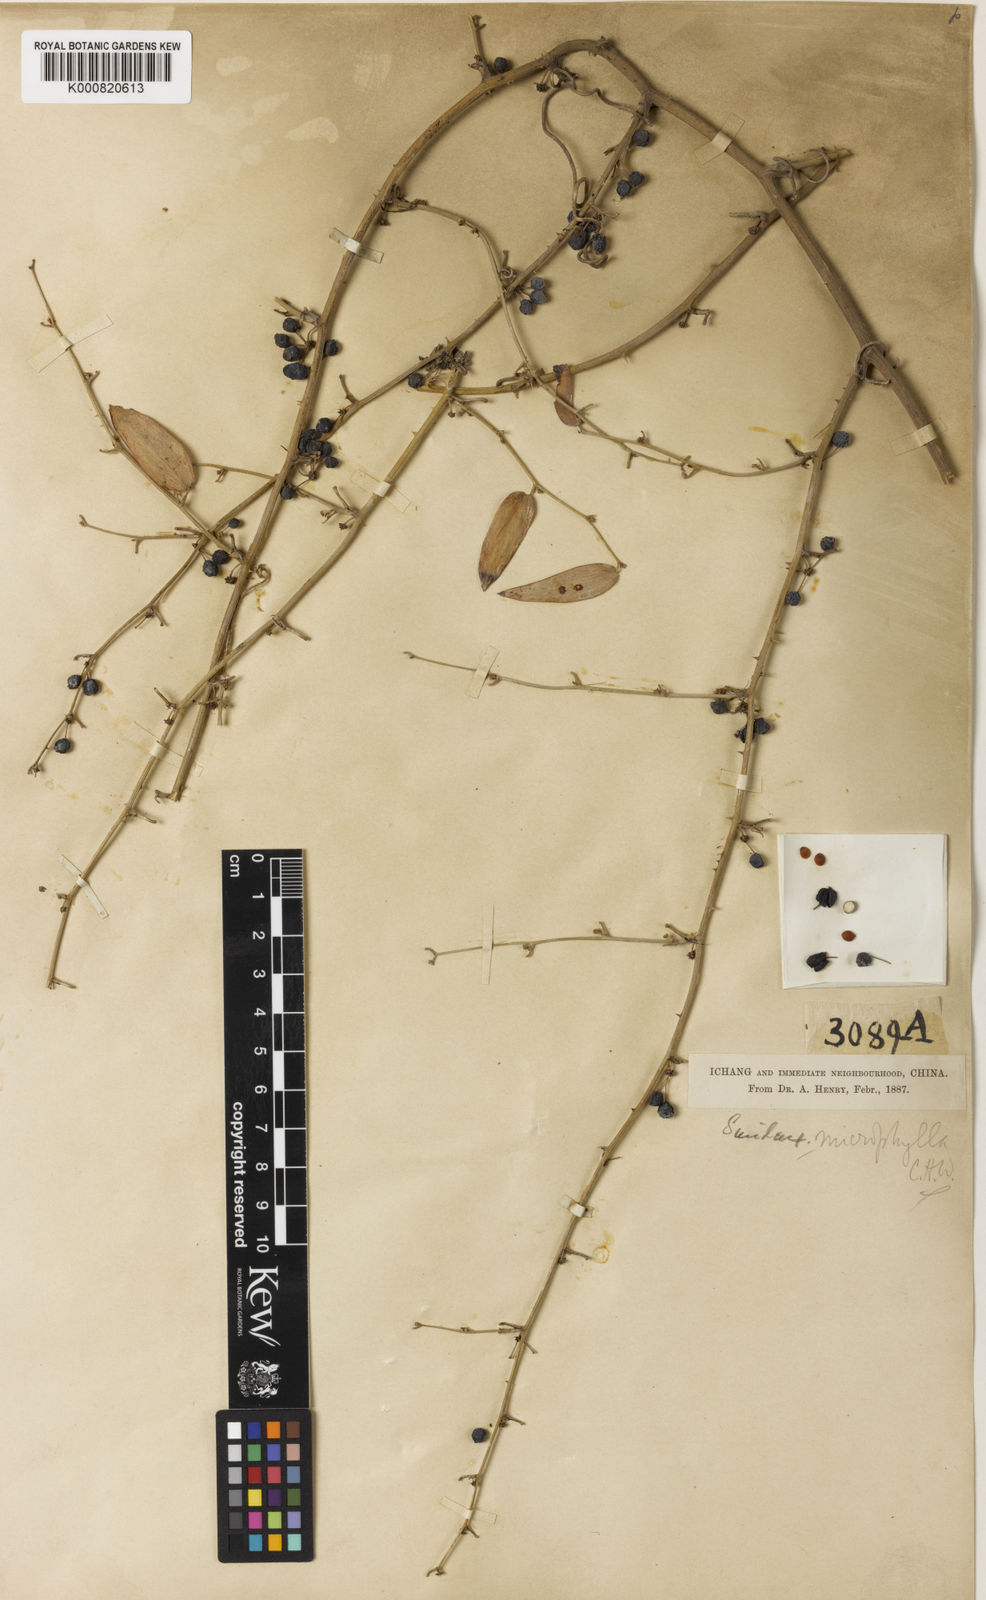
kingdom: Plantae
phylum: Tracheophyta
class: Liliopsida
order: Liliales
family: Smilacaceae
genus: Smilax
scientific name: Smilax microphylla
